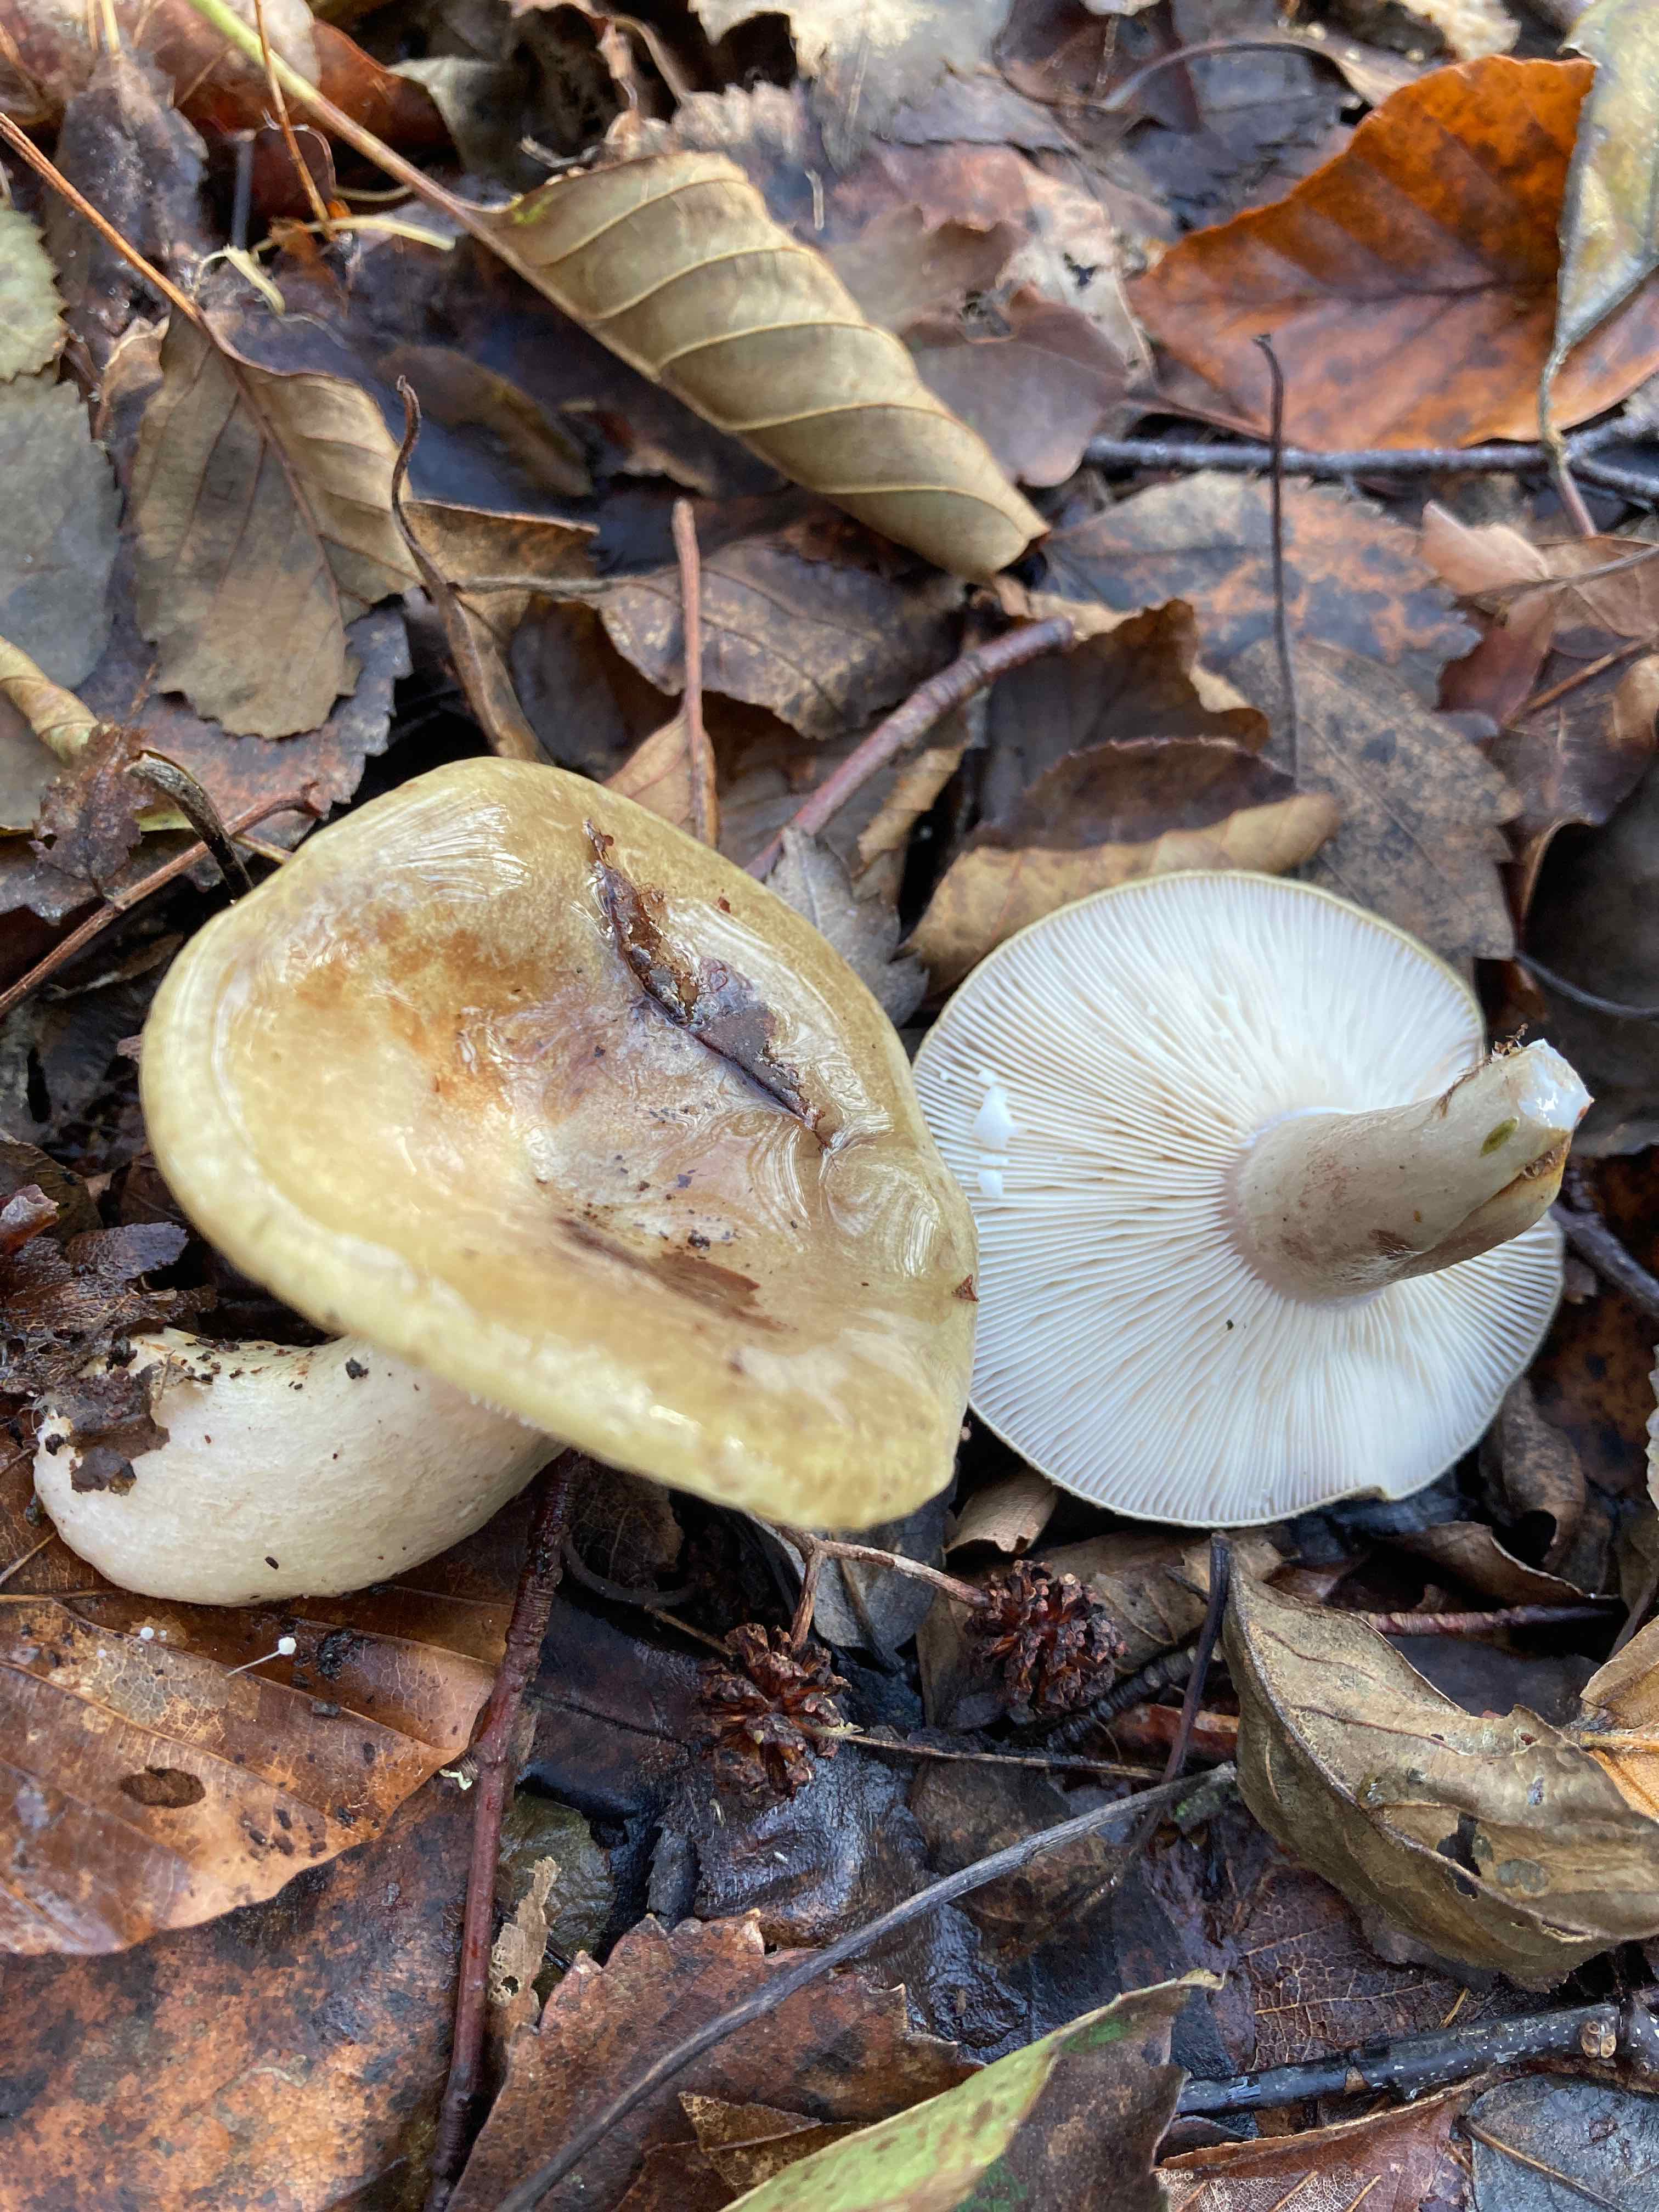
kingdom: Fungi
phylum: Basidiomycota
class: Agaricomycetes
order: Russulales
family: Russulaceae
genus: Lactarius
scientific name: Lactarius blennius
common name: dråbeplettet mælkehat
